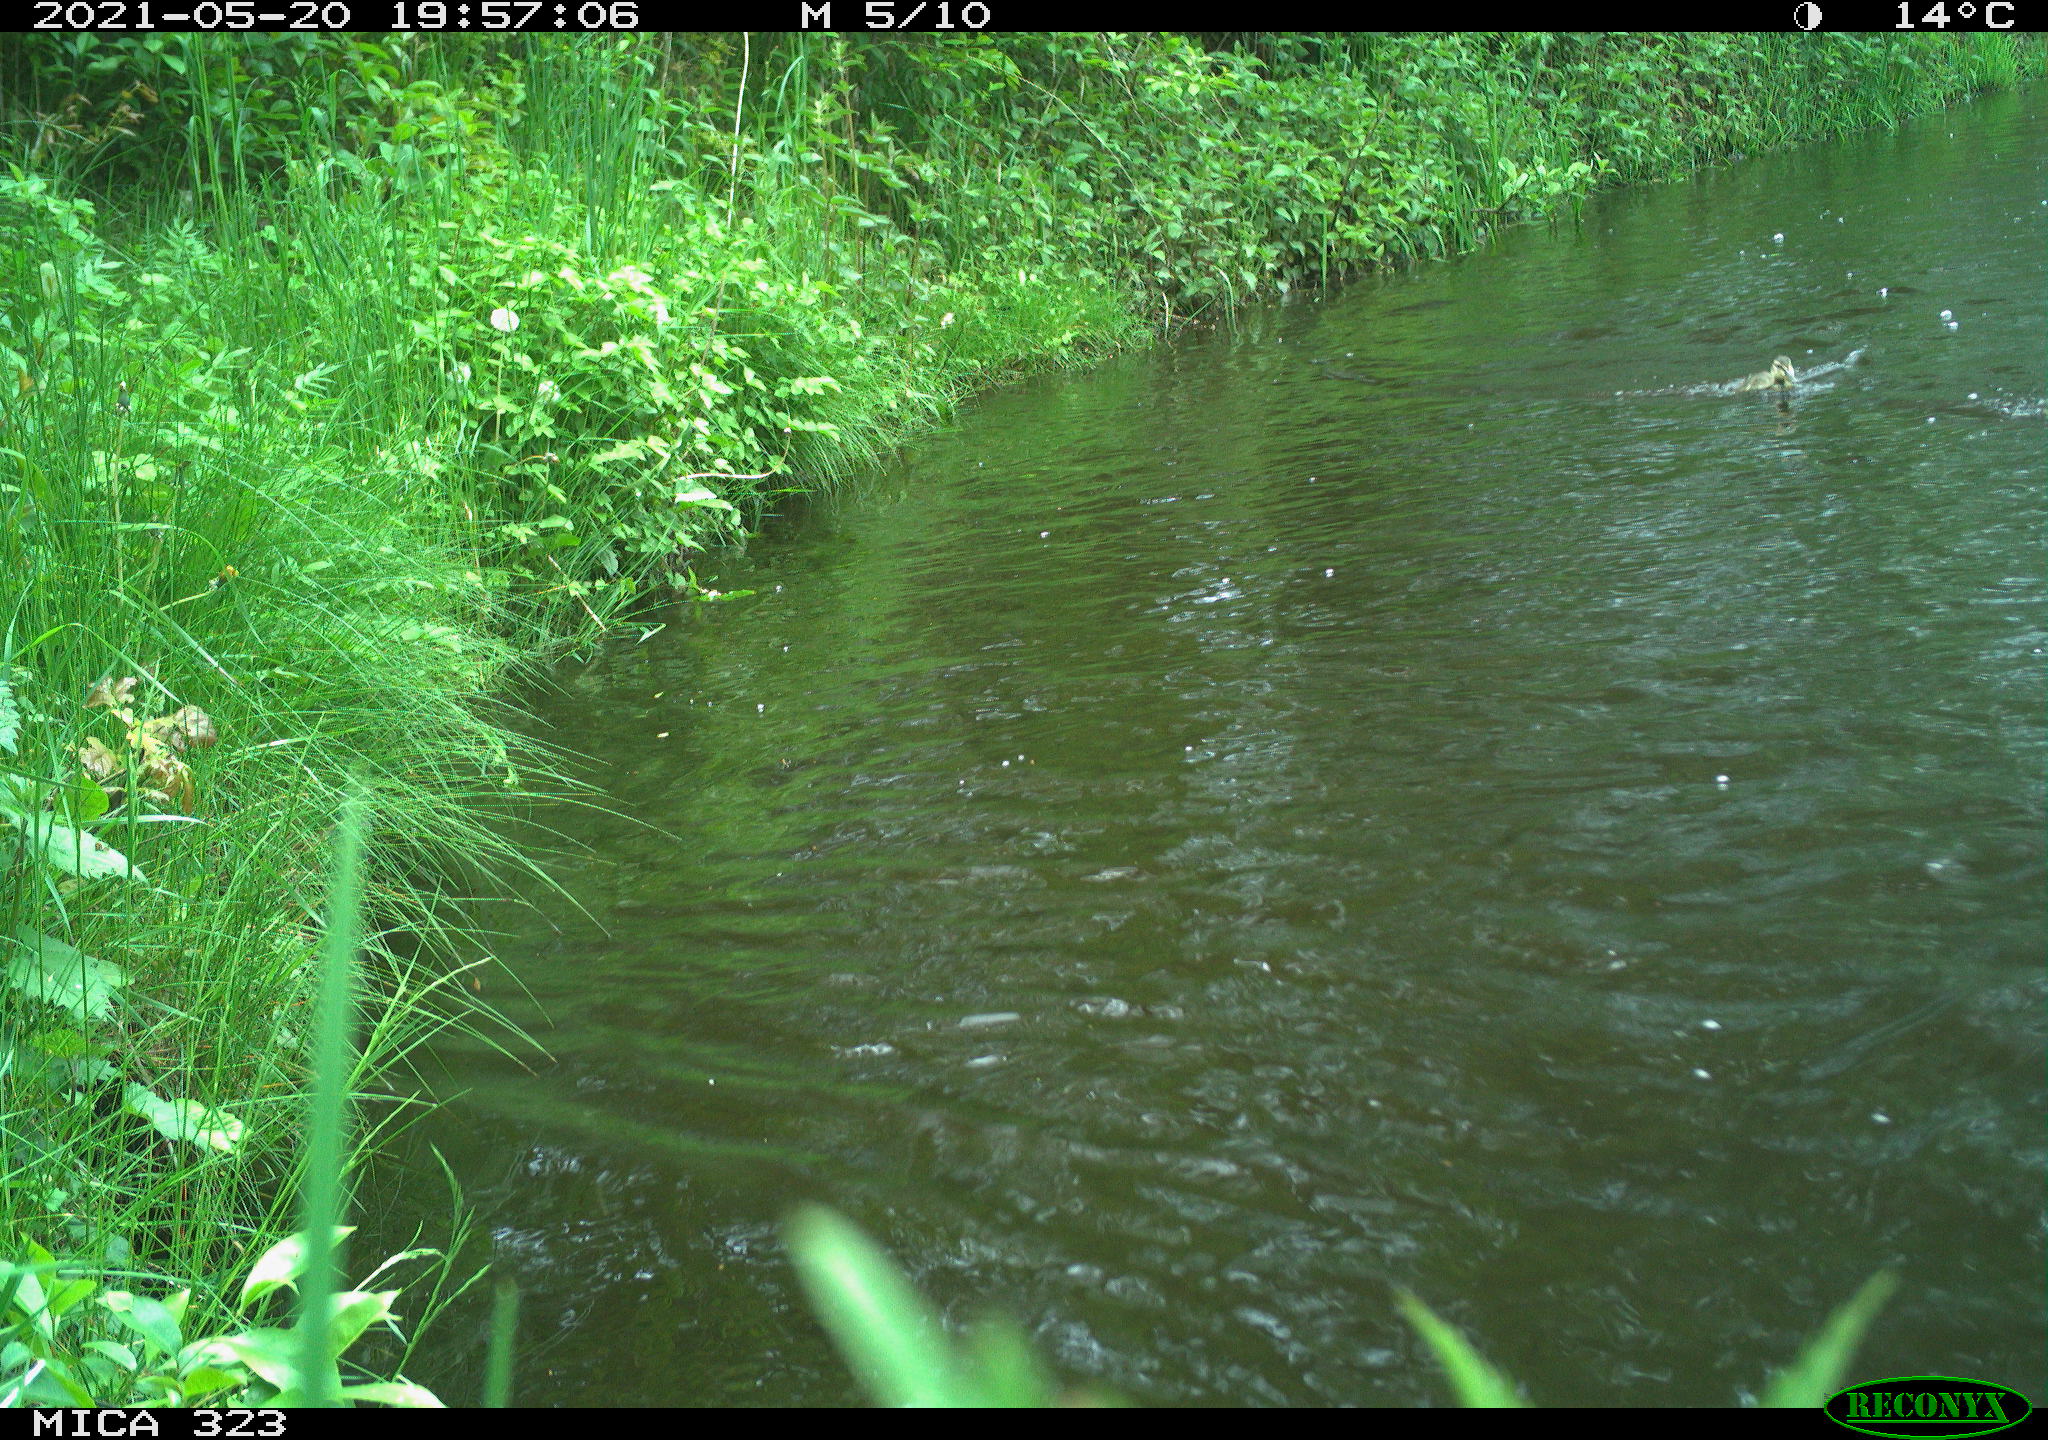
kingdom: Animalia
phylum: Chordata
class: Aves
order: Anseriformes
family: Anatidae
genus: Anas
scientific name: Anas platyrhynchos
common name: Mallard
